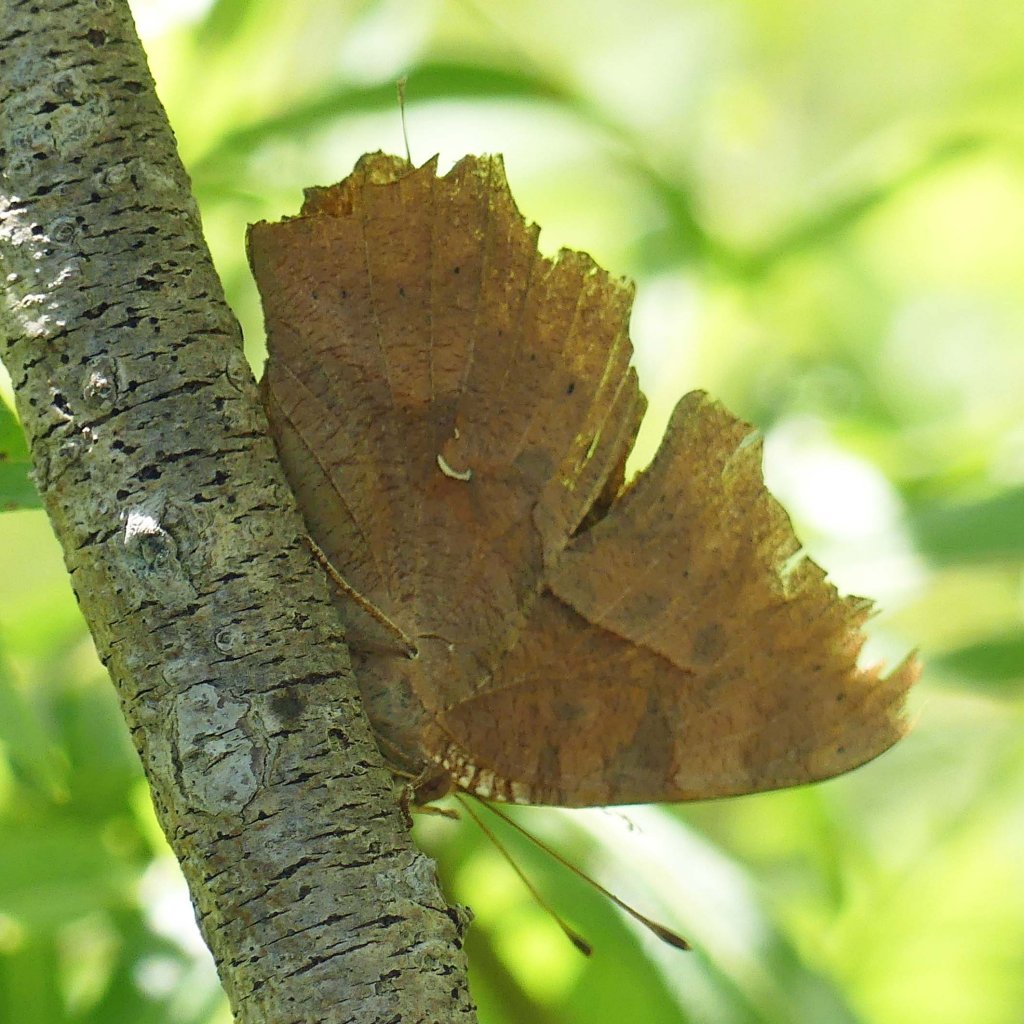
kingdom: Animalia
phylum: Arthropoda
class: Insecta
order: Lepidoptera
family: Nymphalidae
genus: Polygonia
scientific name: Polygonia interrogationis
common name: Question Mark
